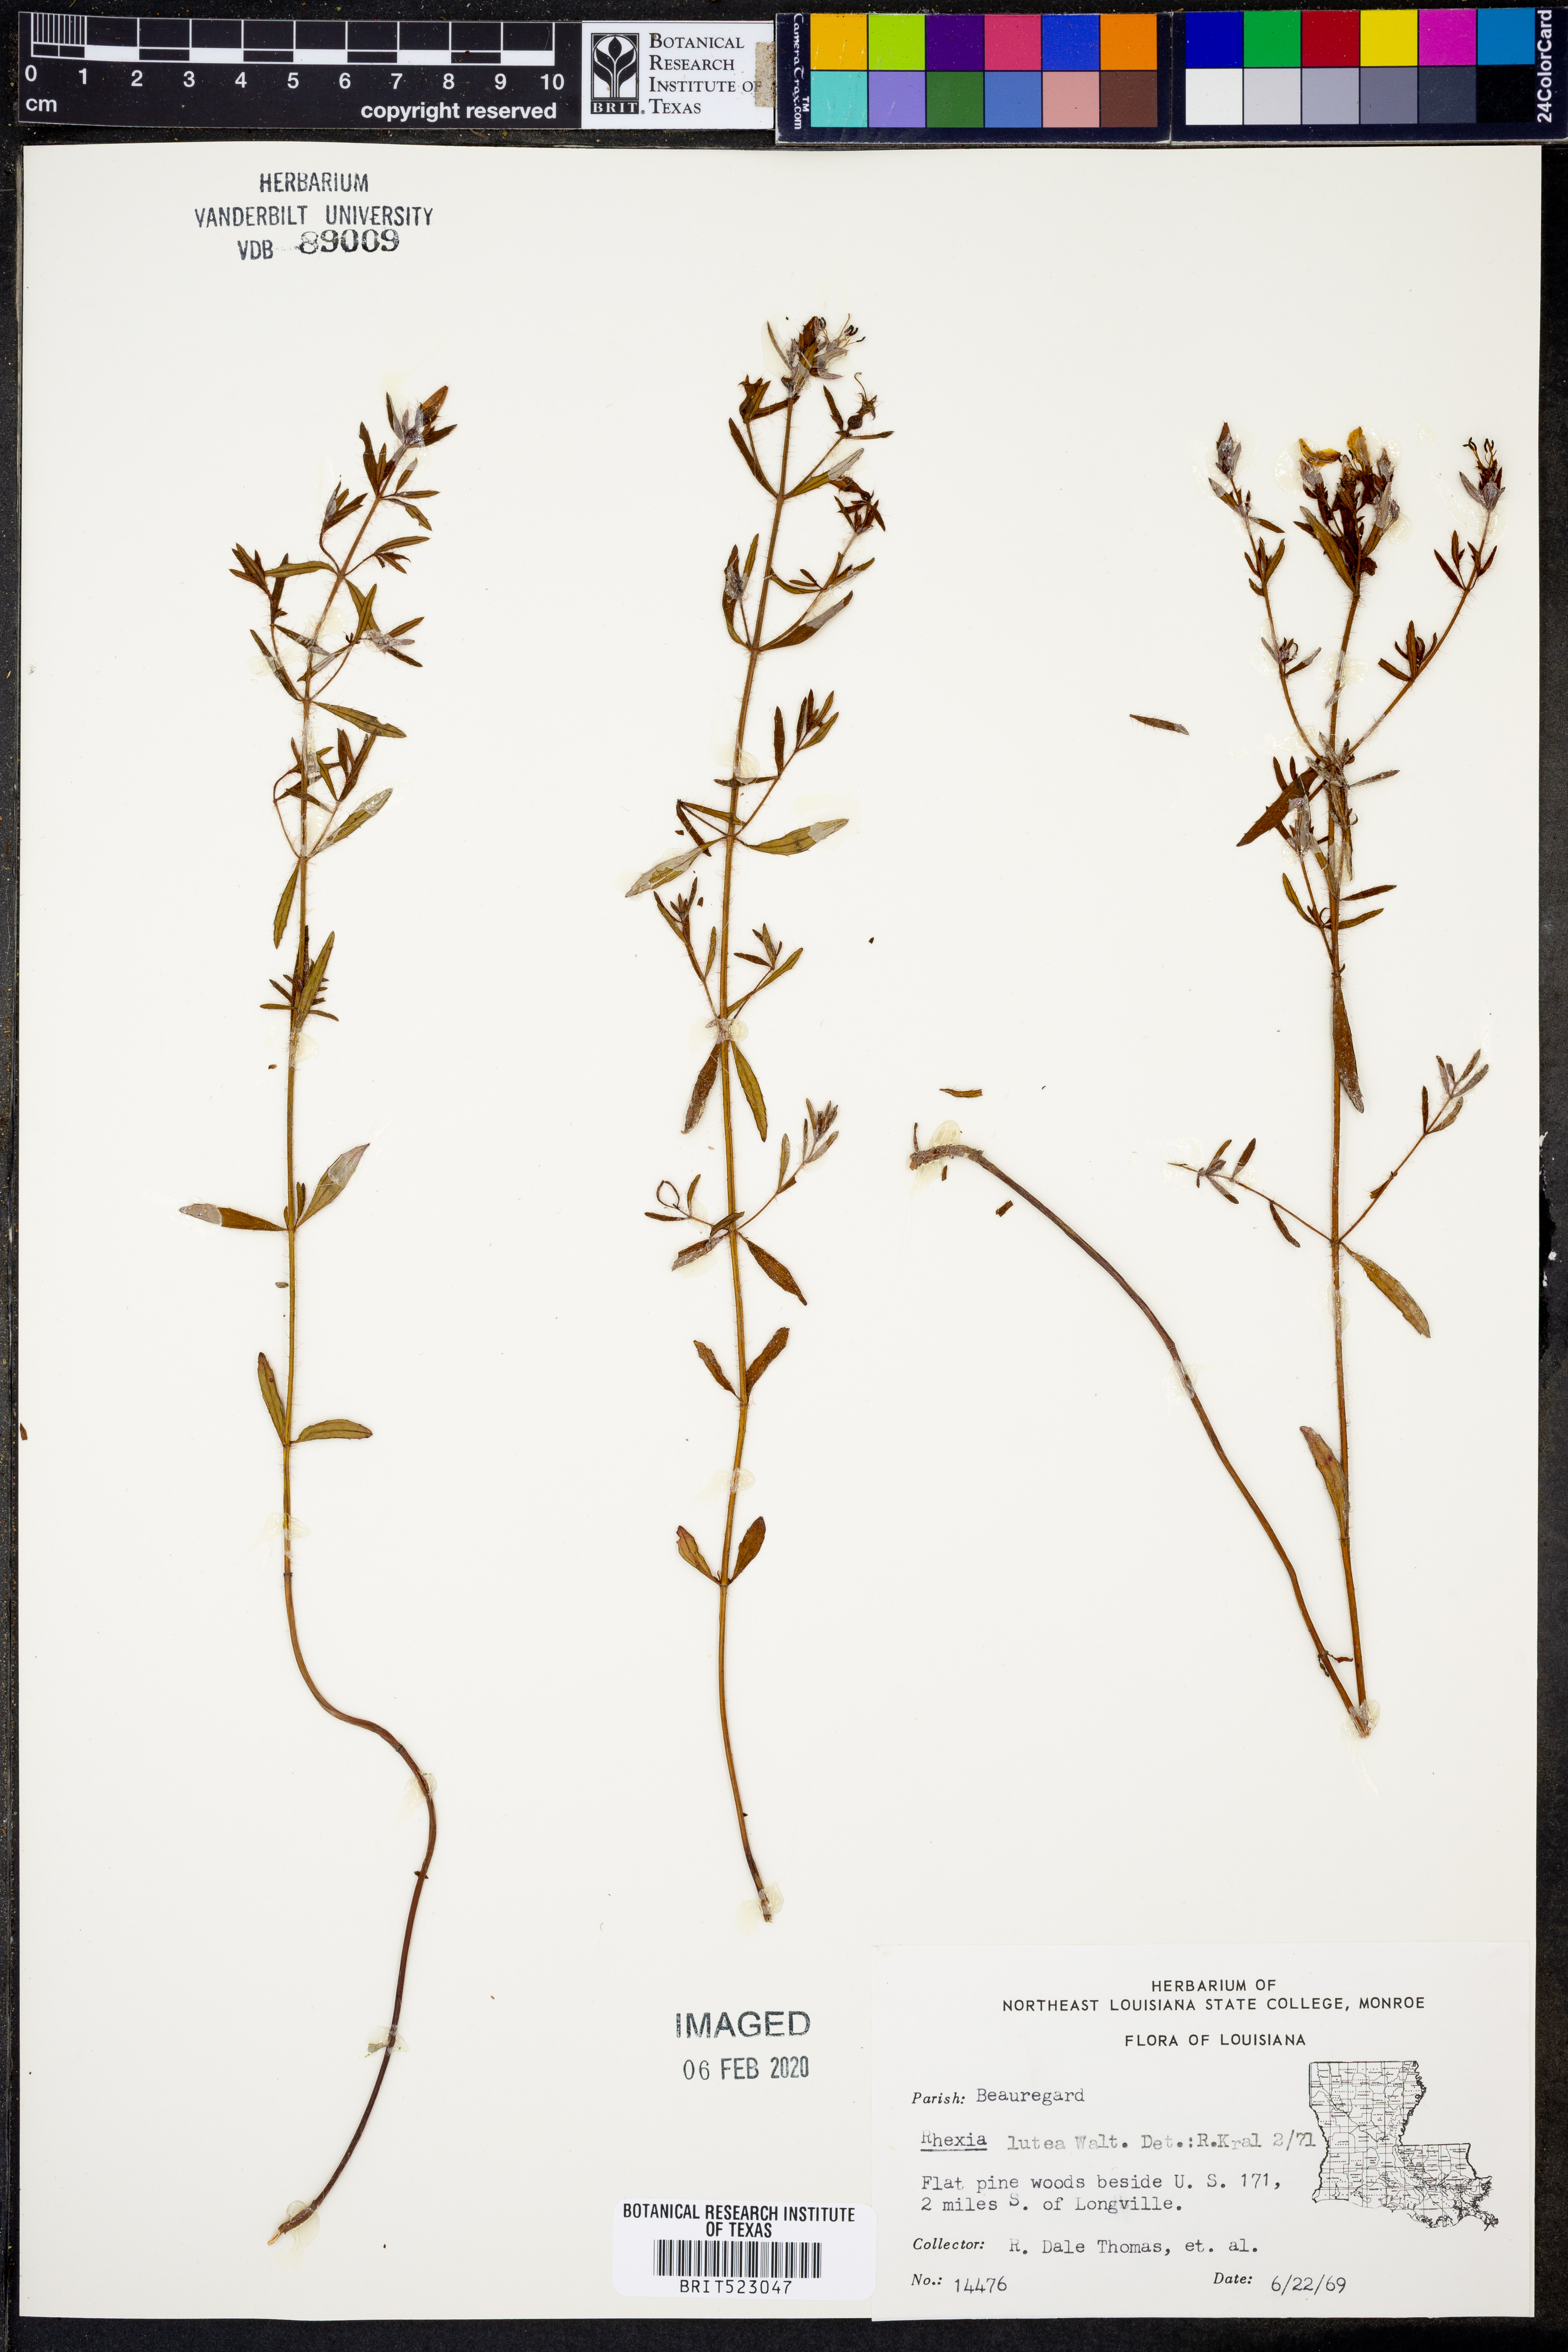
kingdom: Plantae
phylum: Tracheophyta
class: Magnoliopsida
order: Myrtales
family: Melastomataceae
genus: Rhexia
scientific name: Rhexia lutea
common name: Golden meadow-beauty
